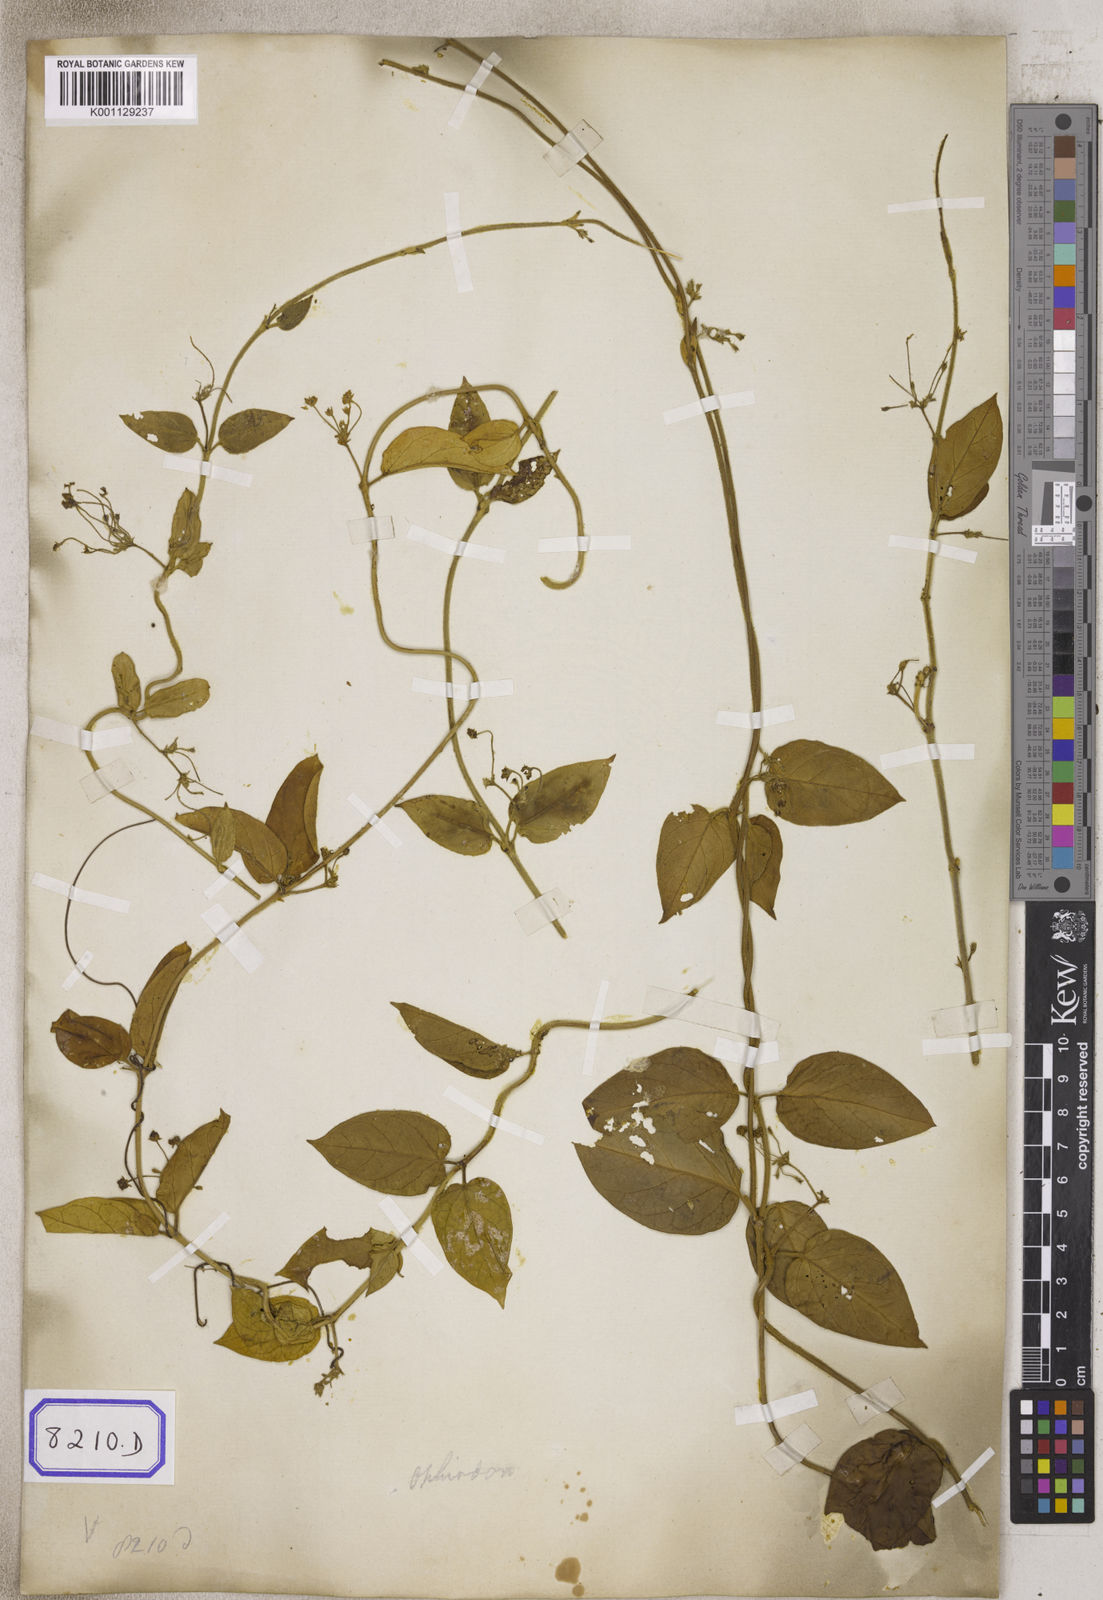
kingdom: Plantae
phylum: Tracheophyta
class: Magnoliopsida
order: Gentianales
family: Apocynaceae
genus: Vincetoxicum
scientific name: Vincetoxicum indicum
